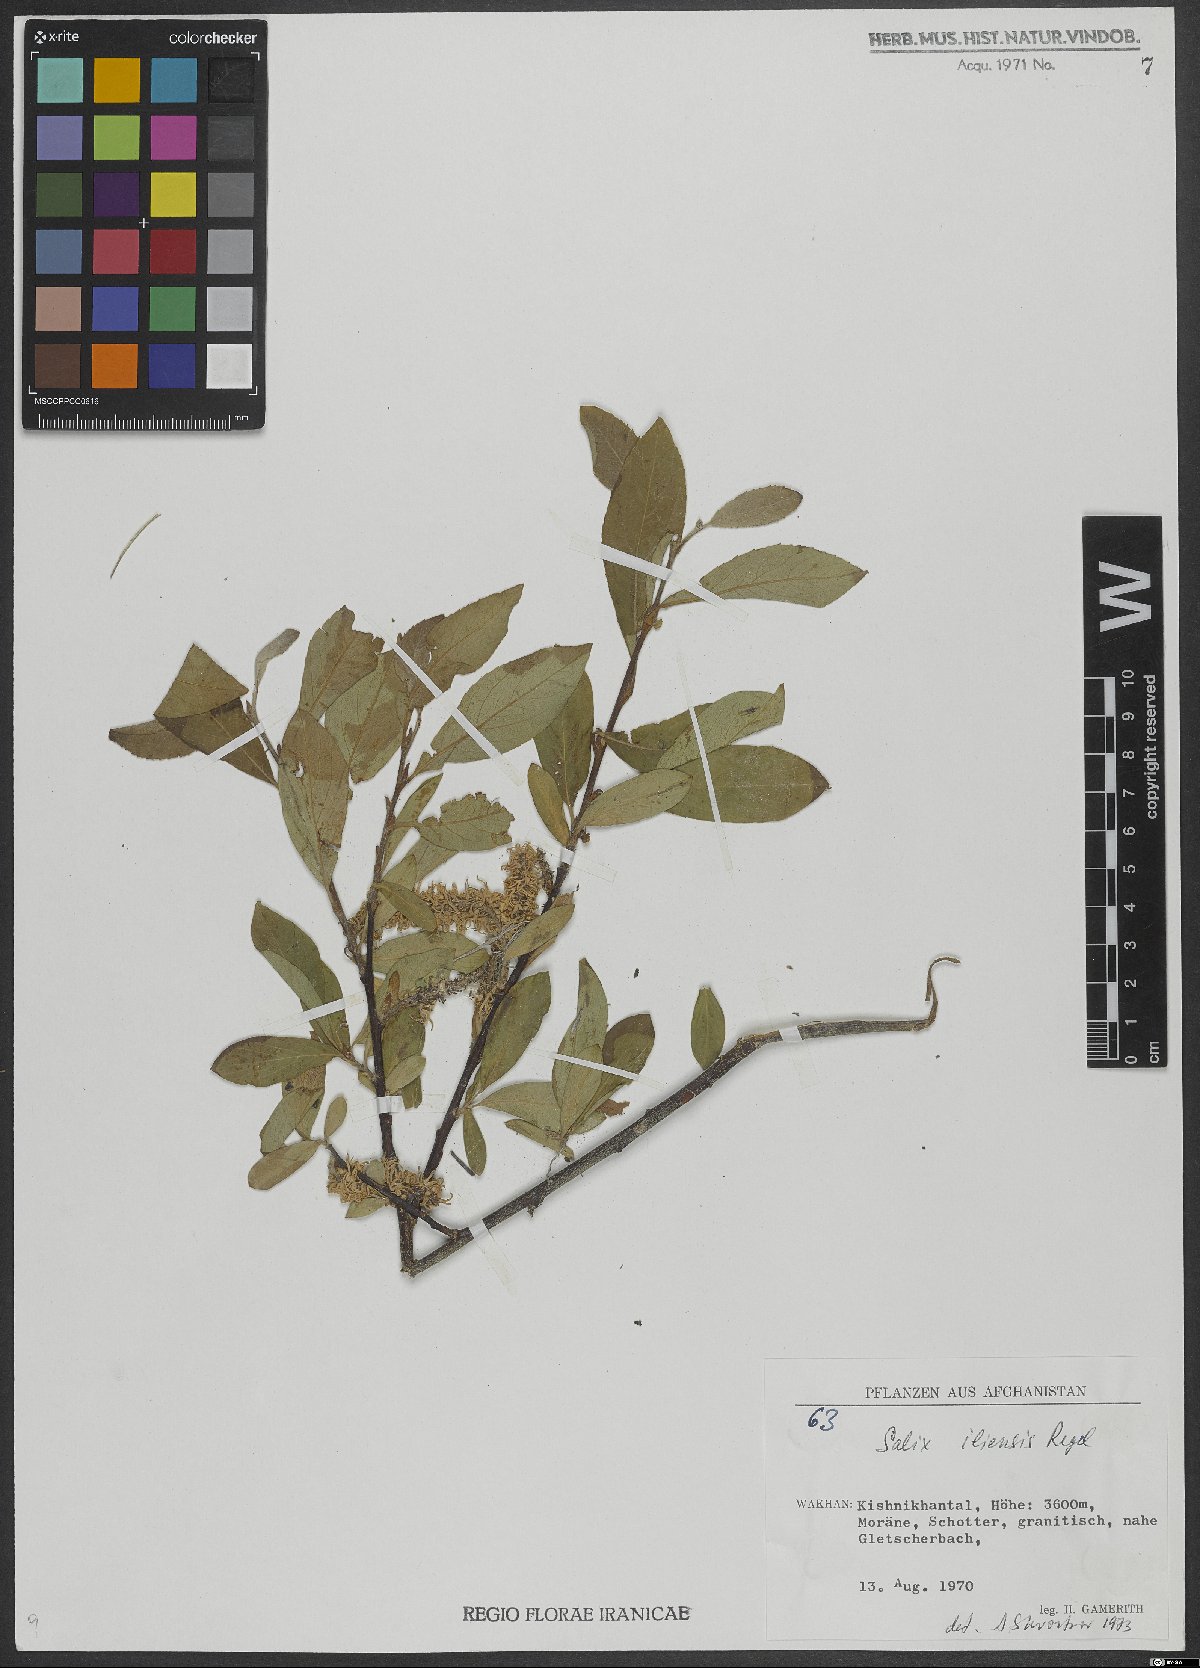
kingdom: Plantae
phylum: Tracheophyta
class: Magnoliopsida
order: Malpighiales
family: Salicaceae
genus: Salix
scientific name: Salix iliensis
